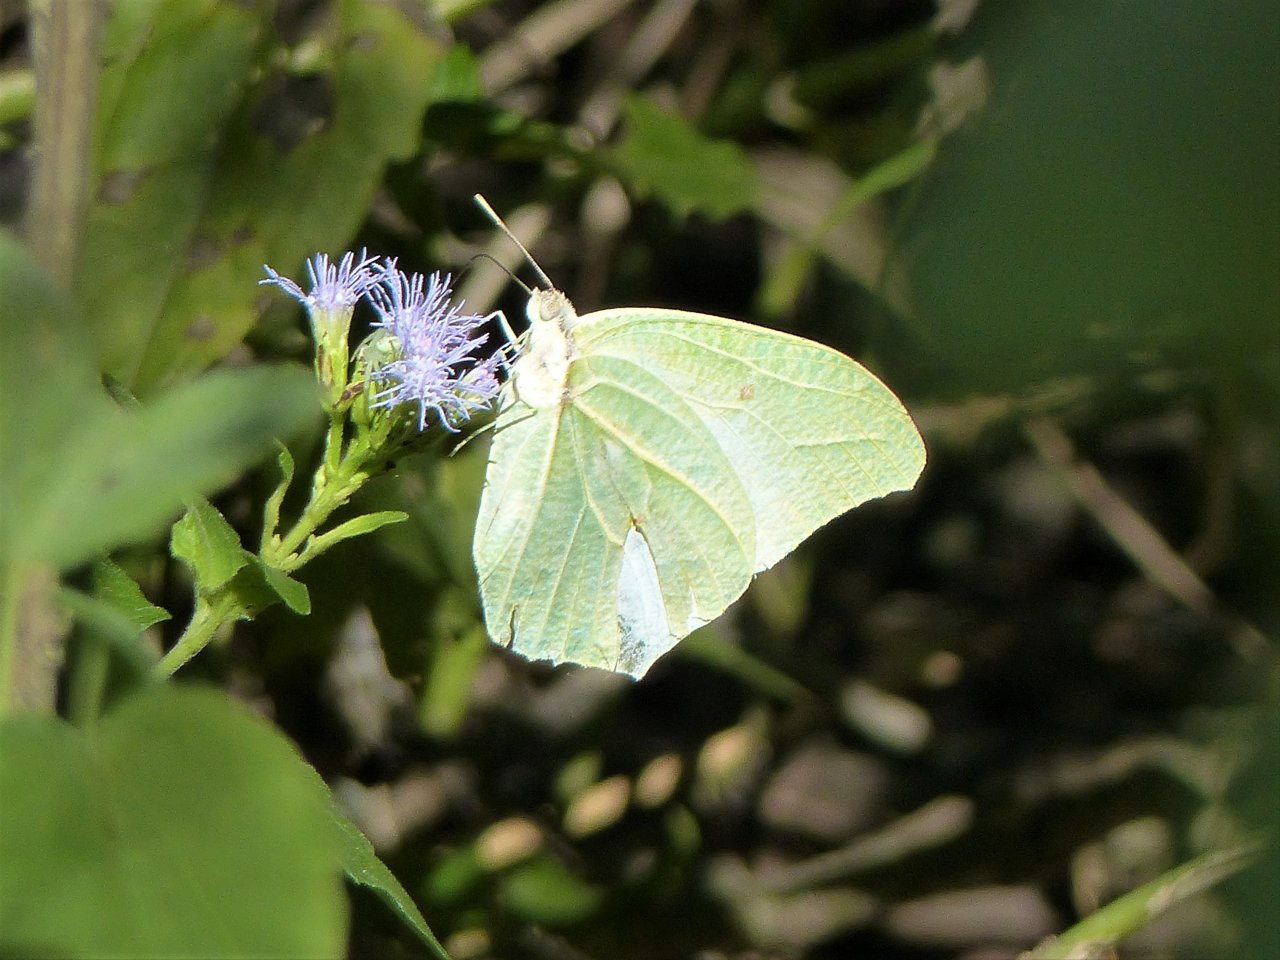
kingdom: Animalia
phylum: Arthropoda
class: Insecta
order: Lepidoptera
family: Pieridae
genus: Anteos
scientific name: Anteos clorinde
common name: White Angled-Sulphur
